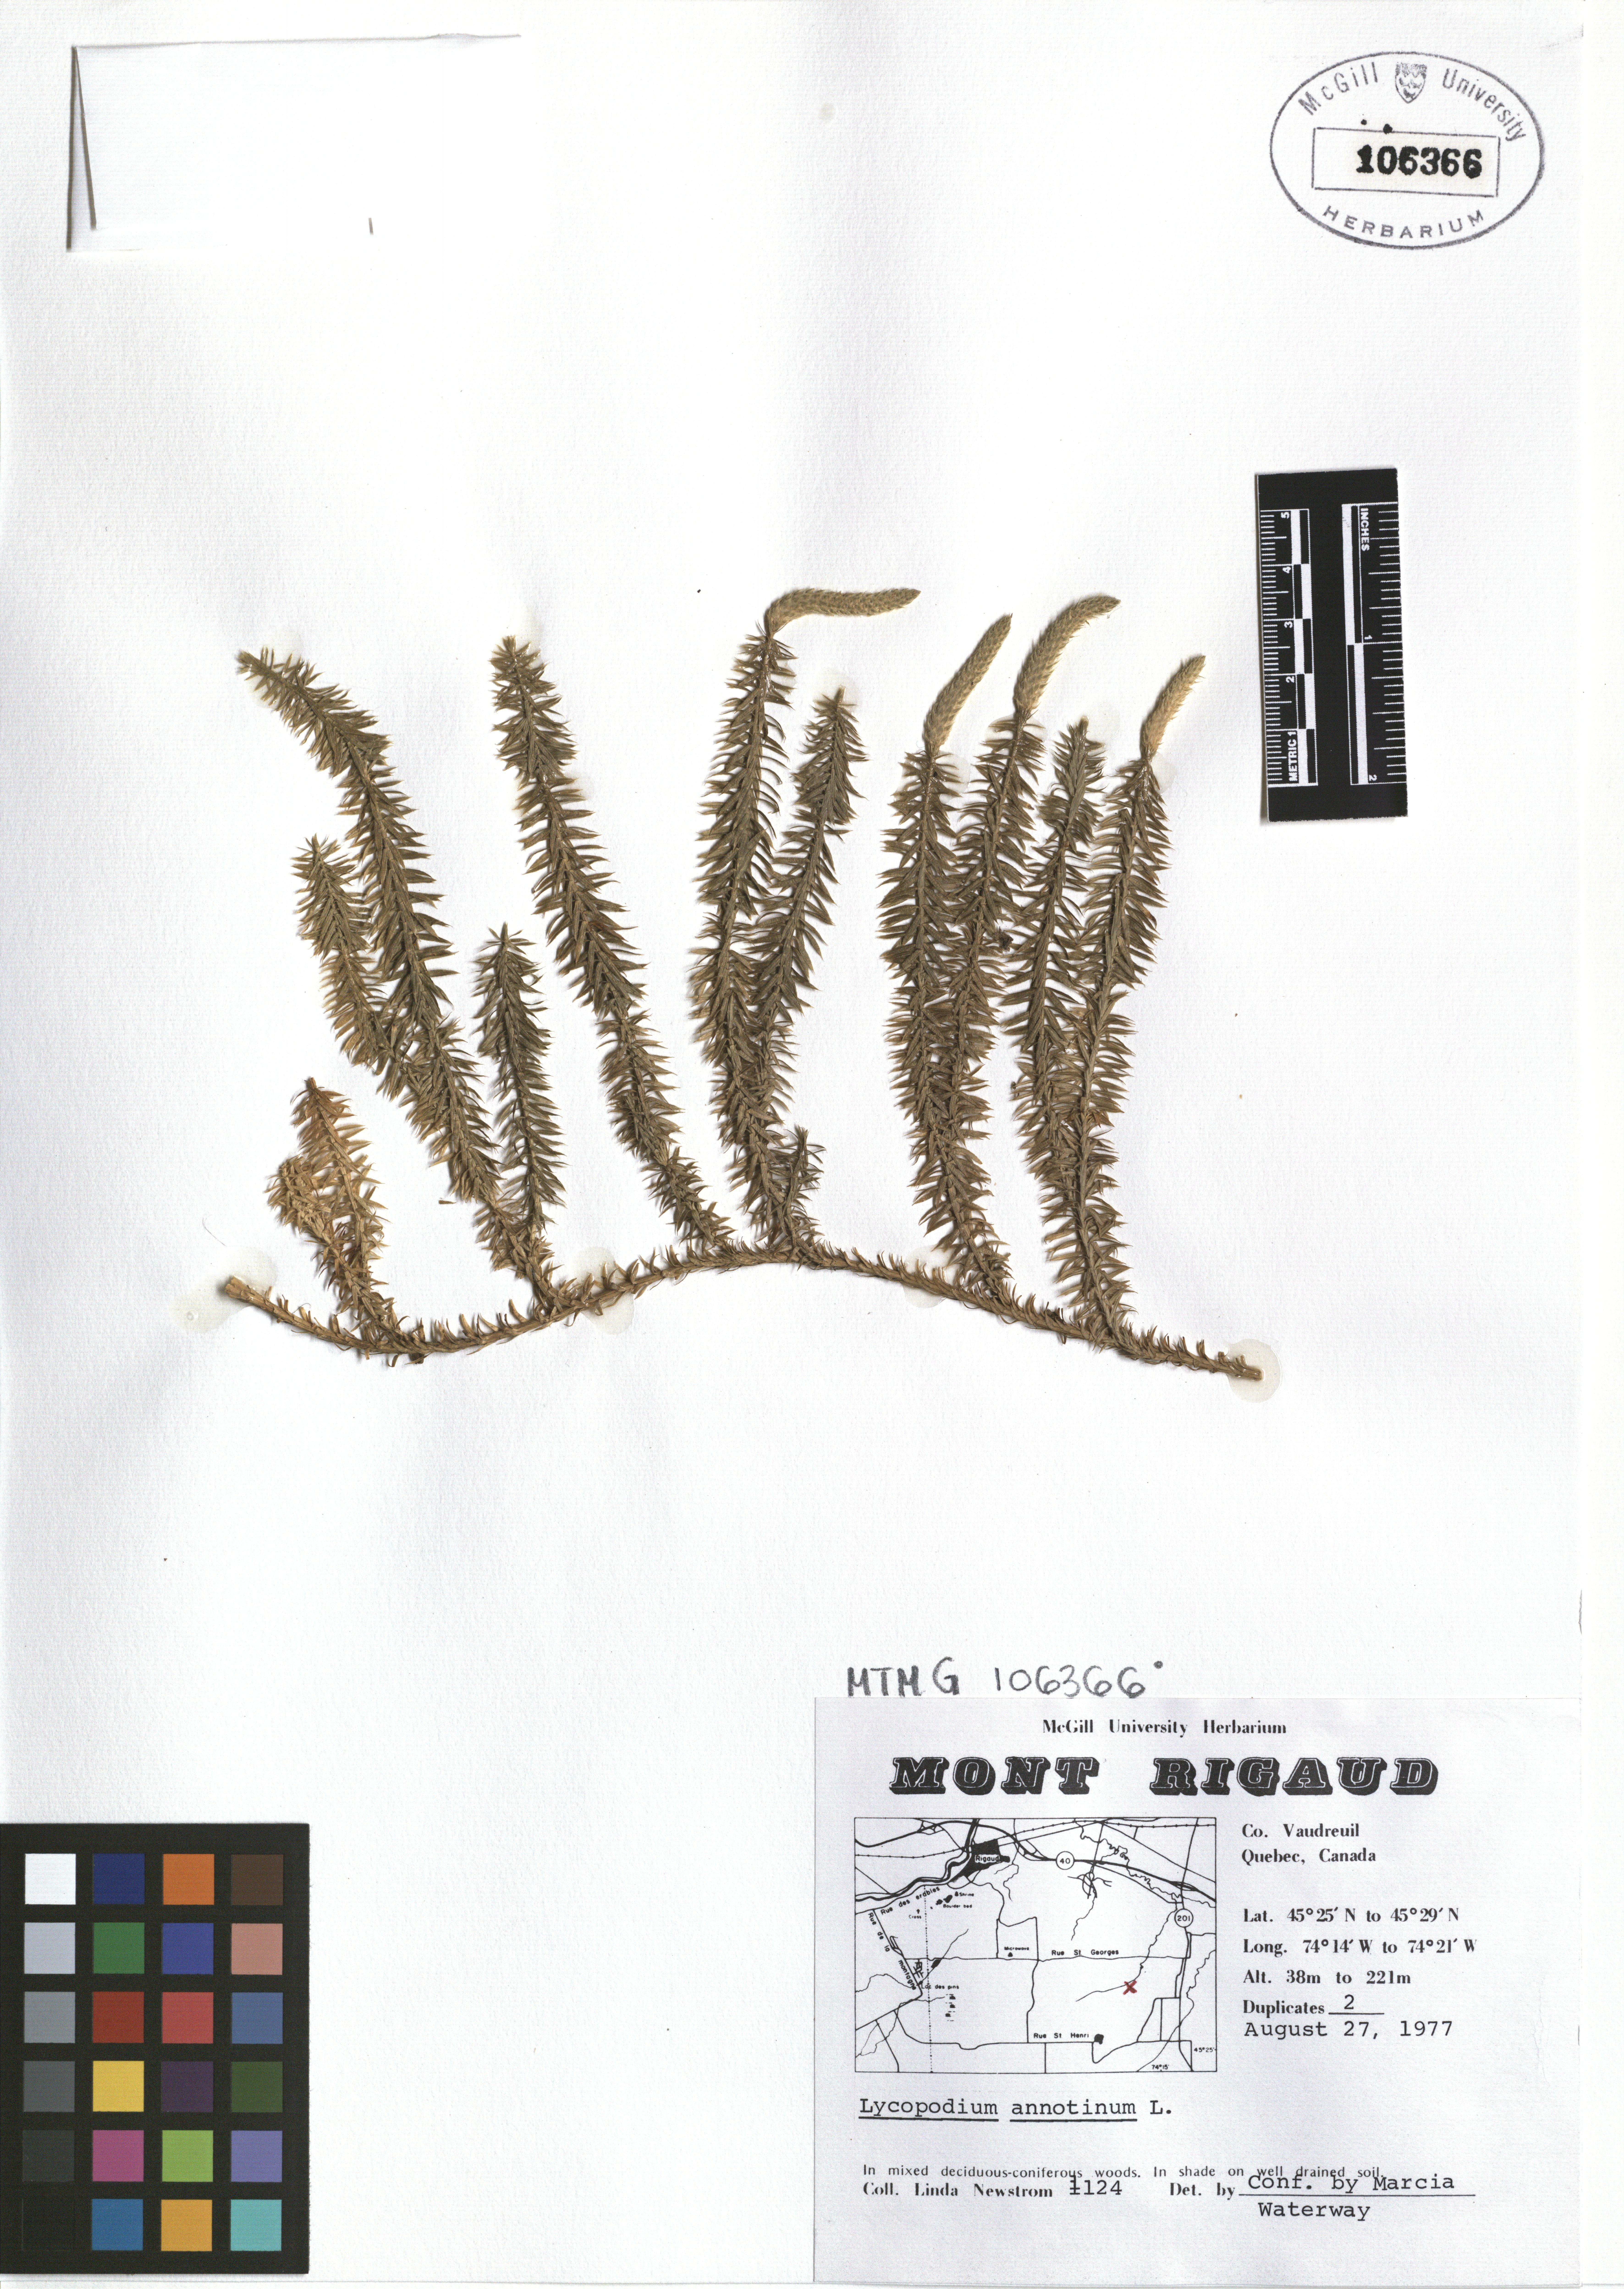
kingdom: Plantae
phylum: Tracheophyta
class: Lycopodiopsida
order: Lycopodiales
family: Lycopodiaceae
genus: Spinulum
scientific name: Spinulum annotinum
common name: Interrupted club-moss
